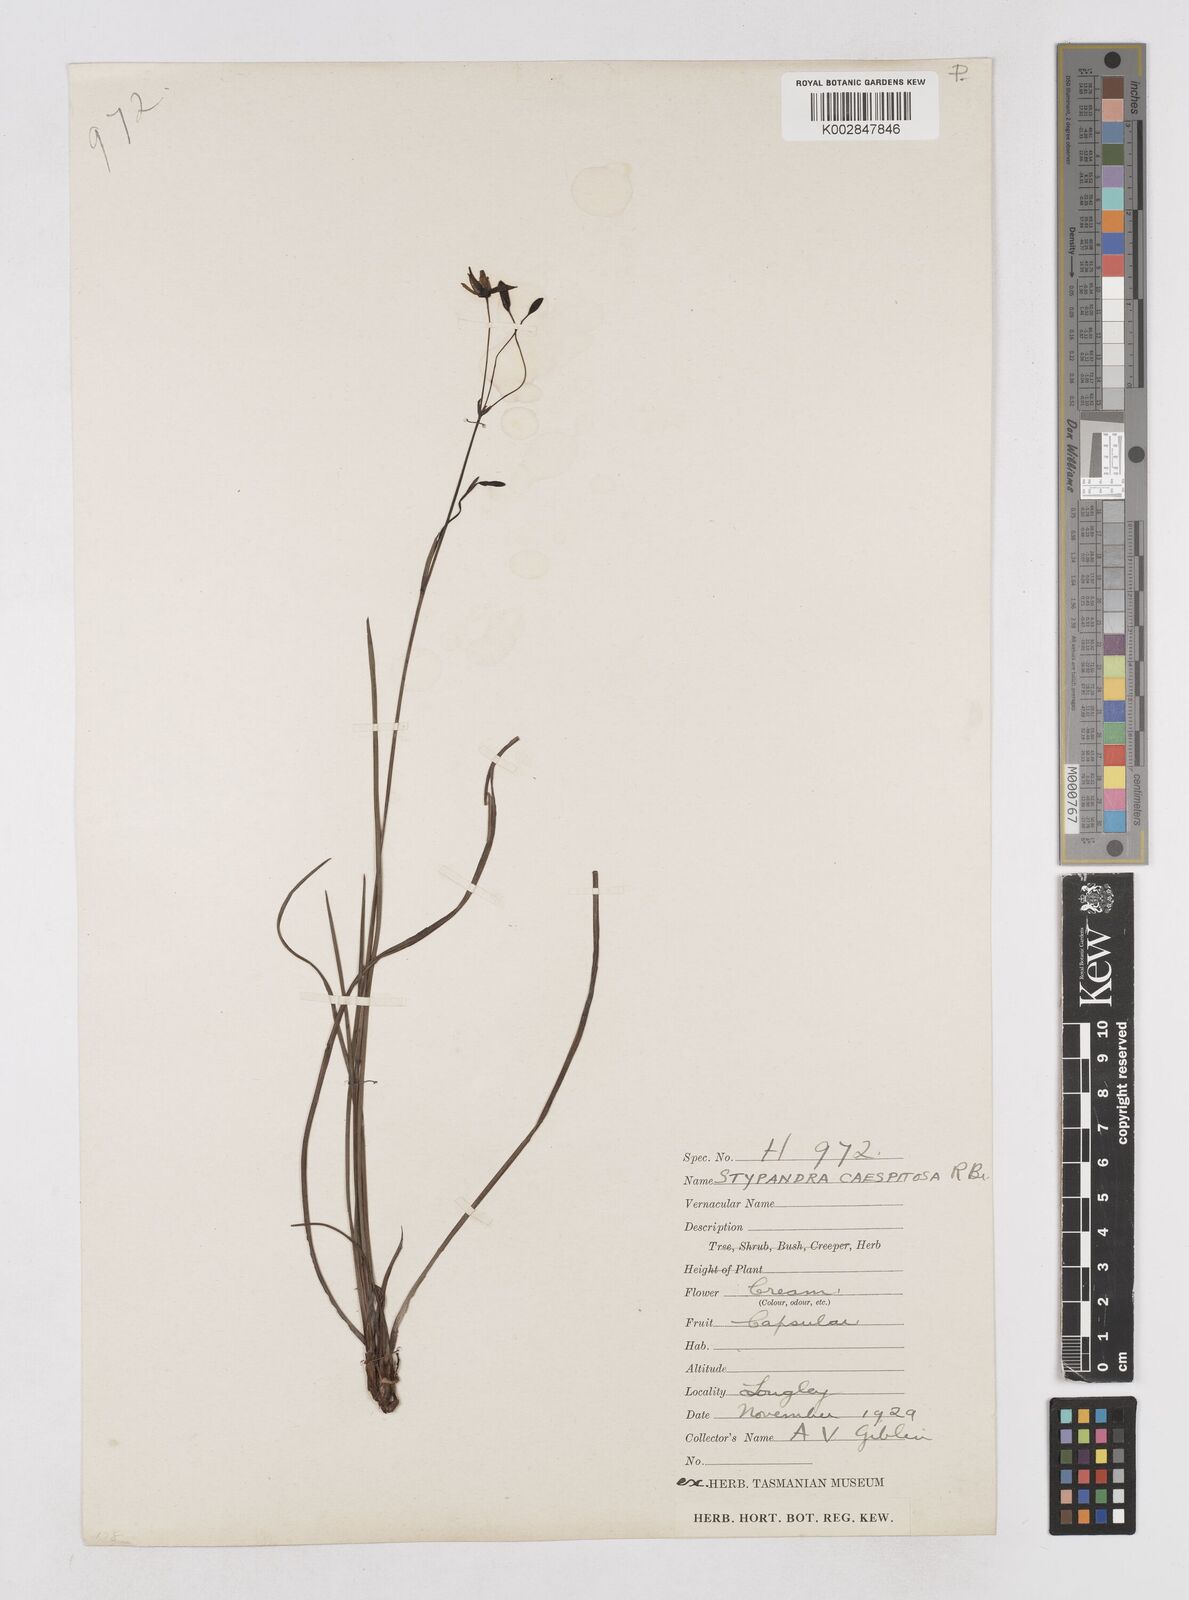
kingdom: Plantae
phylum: Tracheophyta
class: Liliopsida
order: Asparagales
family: Asphodelaceae
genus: Thelionema
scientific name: Thelionema caespitosum
